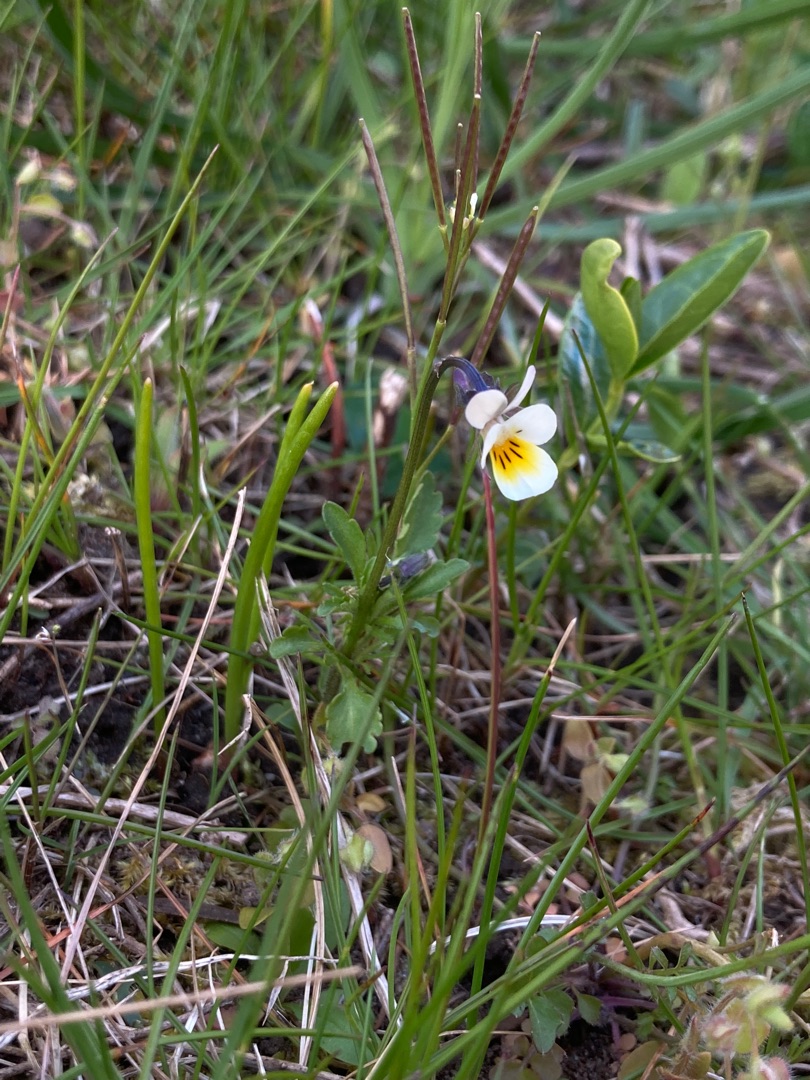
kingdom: Plantae
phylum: Tracheophyta
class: Magnoliopsida
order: Malpighiales
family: Violaceae
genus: Viola
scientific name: Viola arvensis
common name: Ager-stedmoderblomst
